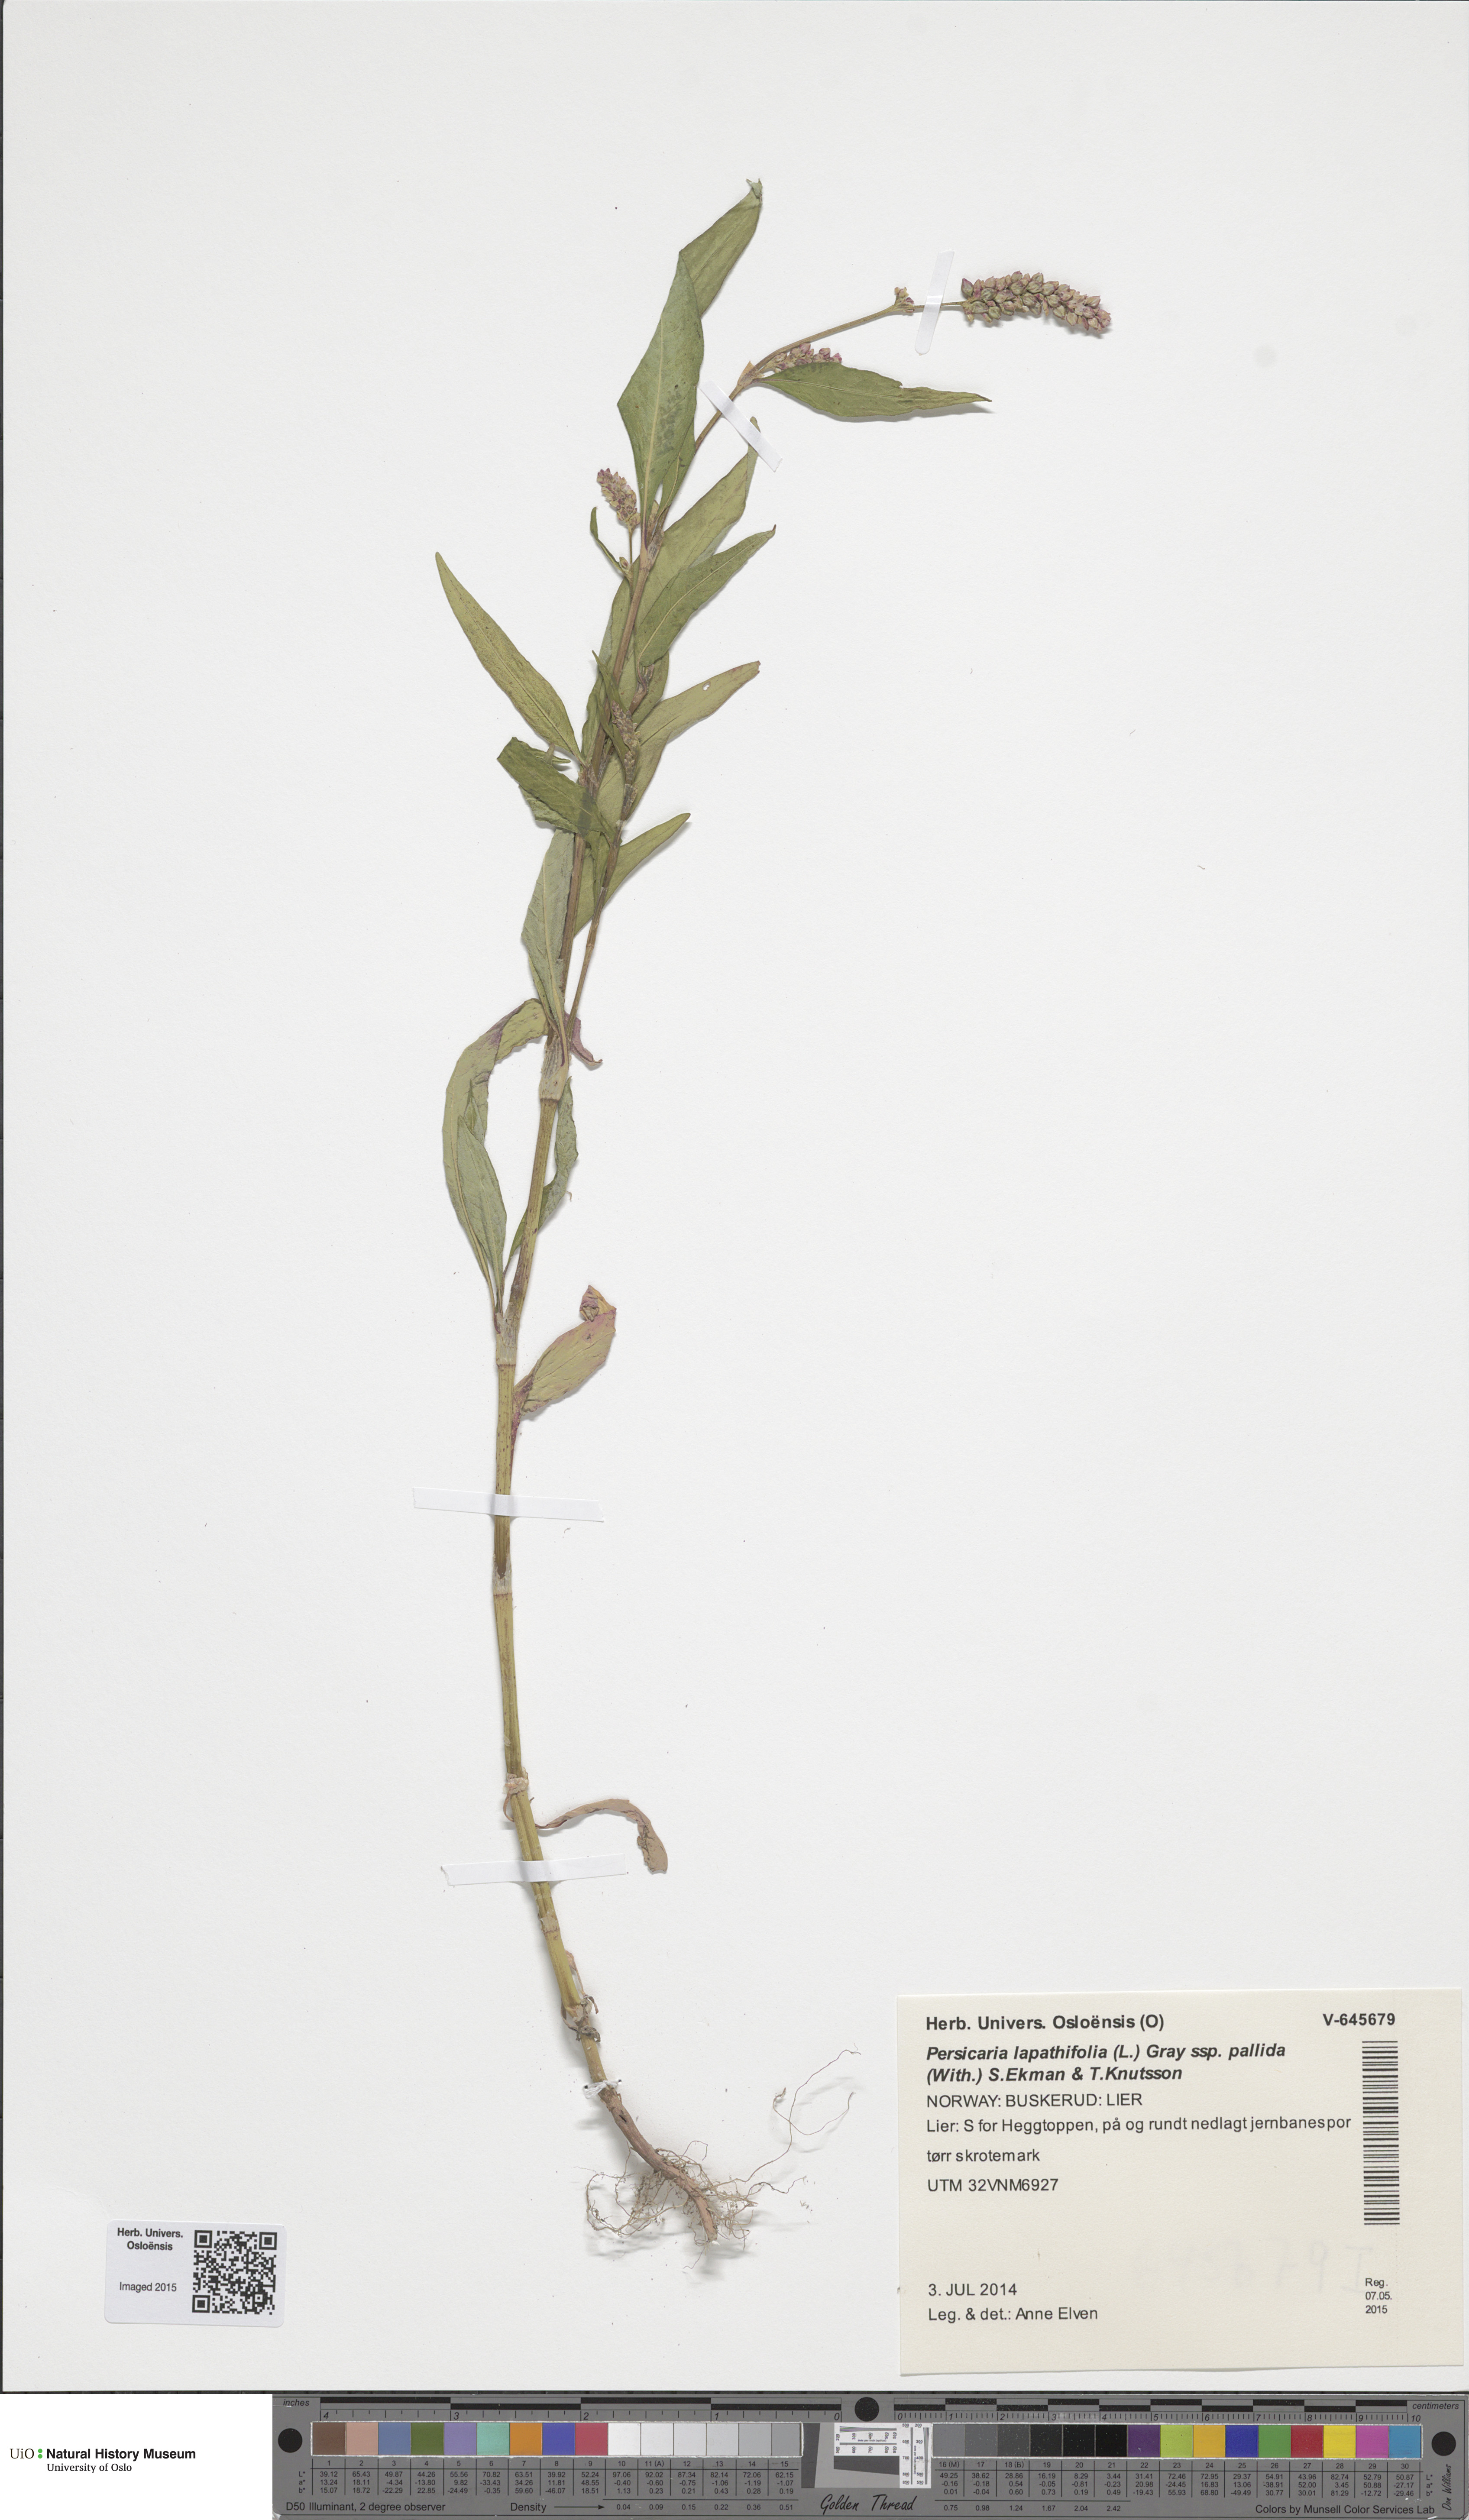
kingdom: Plantae
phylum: Tracheophyta
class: Magnoliopsida
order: Caryophyllales
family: Polygonaceae
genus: Persicaria
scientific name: Persicaria lapathifolia
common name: Curlytop knotweed
